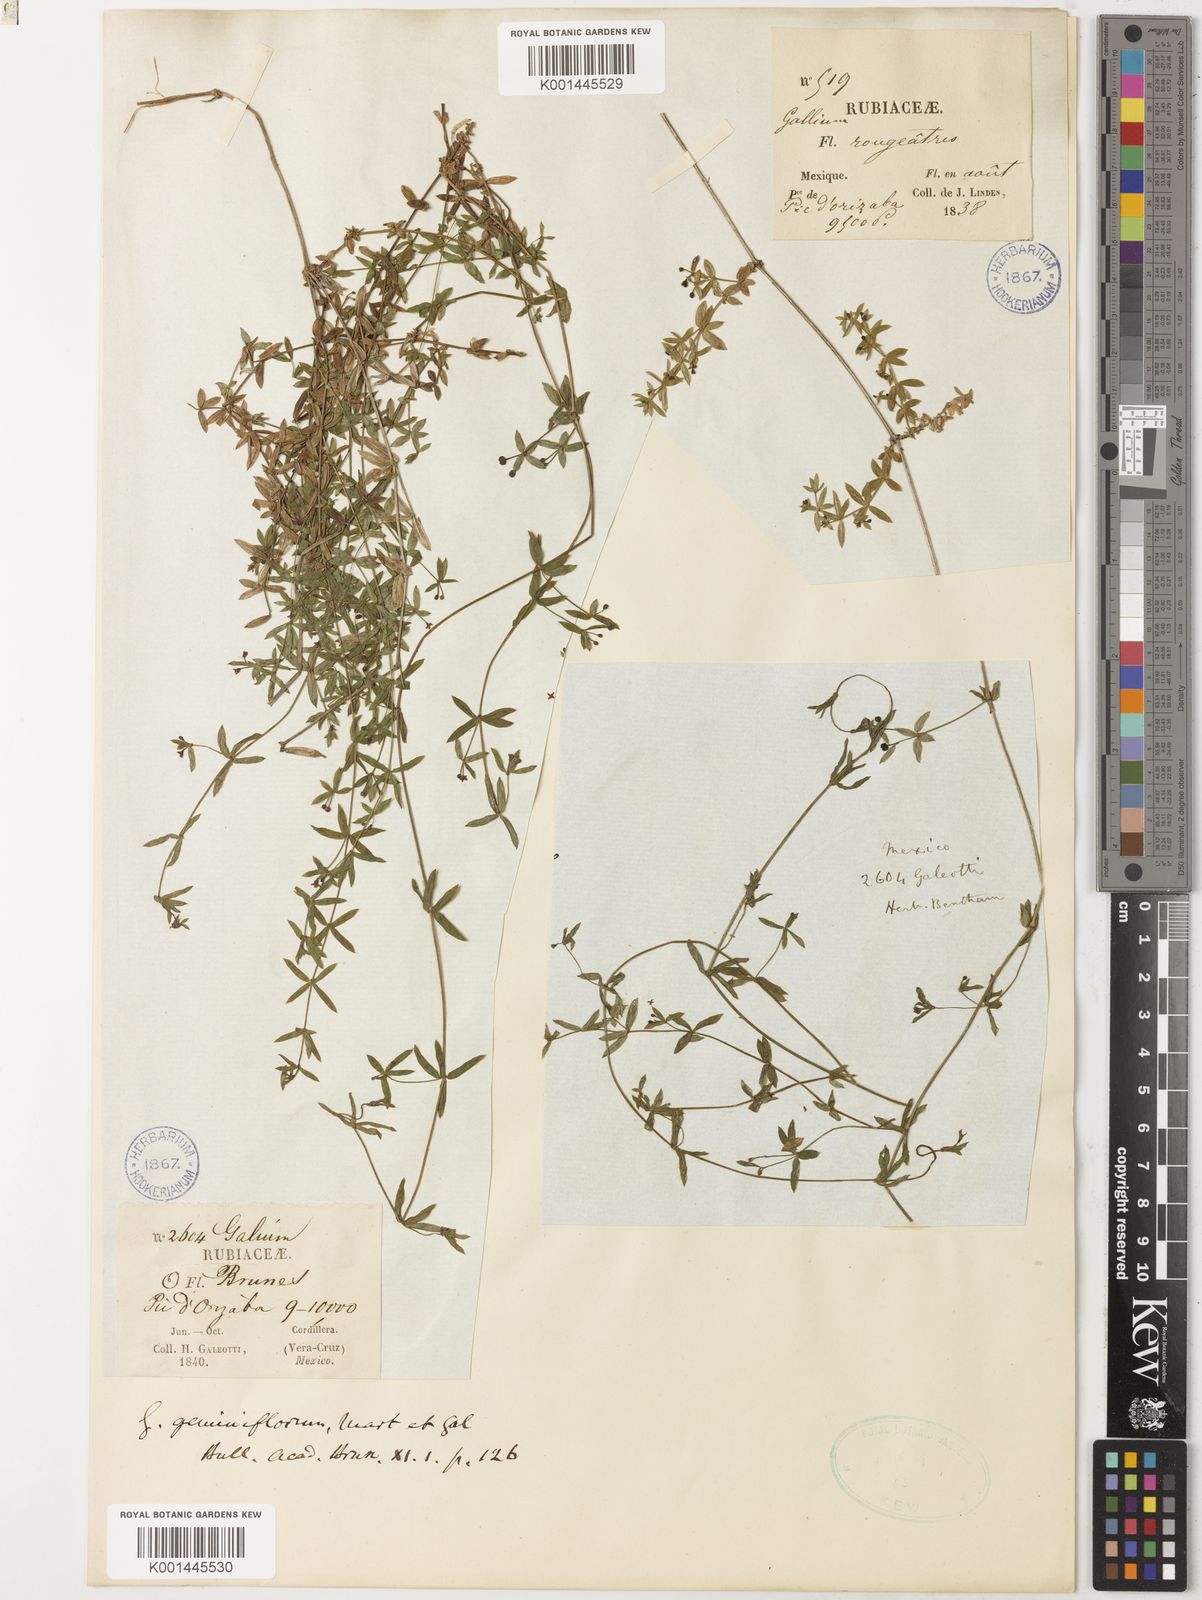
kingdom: Plantae
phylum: Tracheophyta
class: Magnoliopsida
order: Gentianales
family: Rubiaceae
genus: Galium
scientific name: Galium aschenbornii
